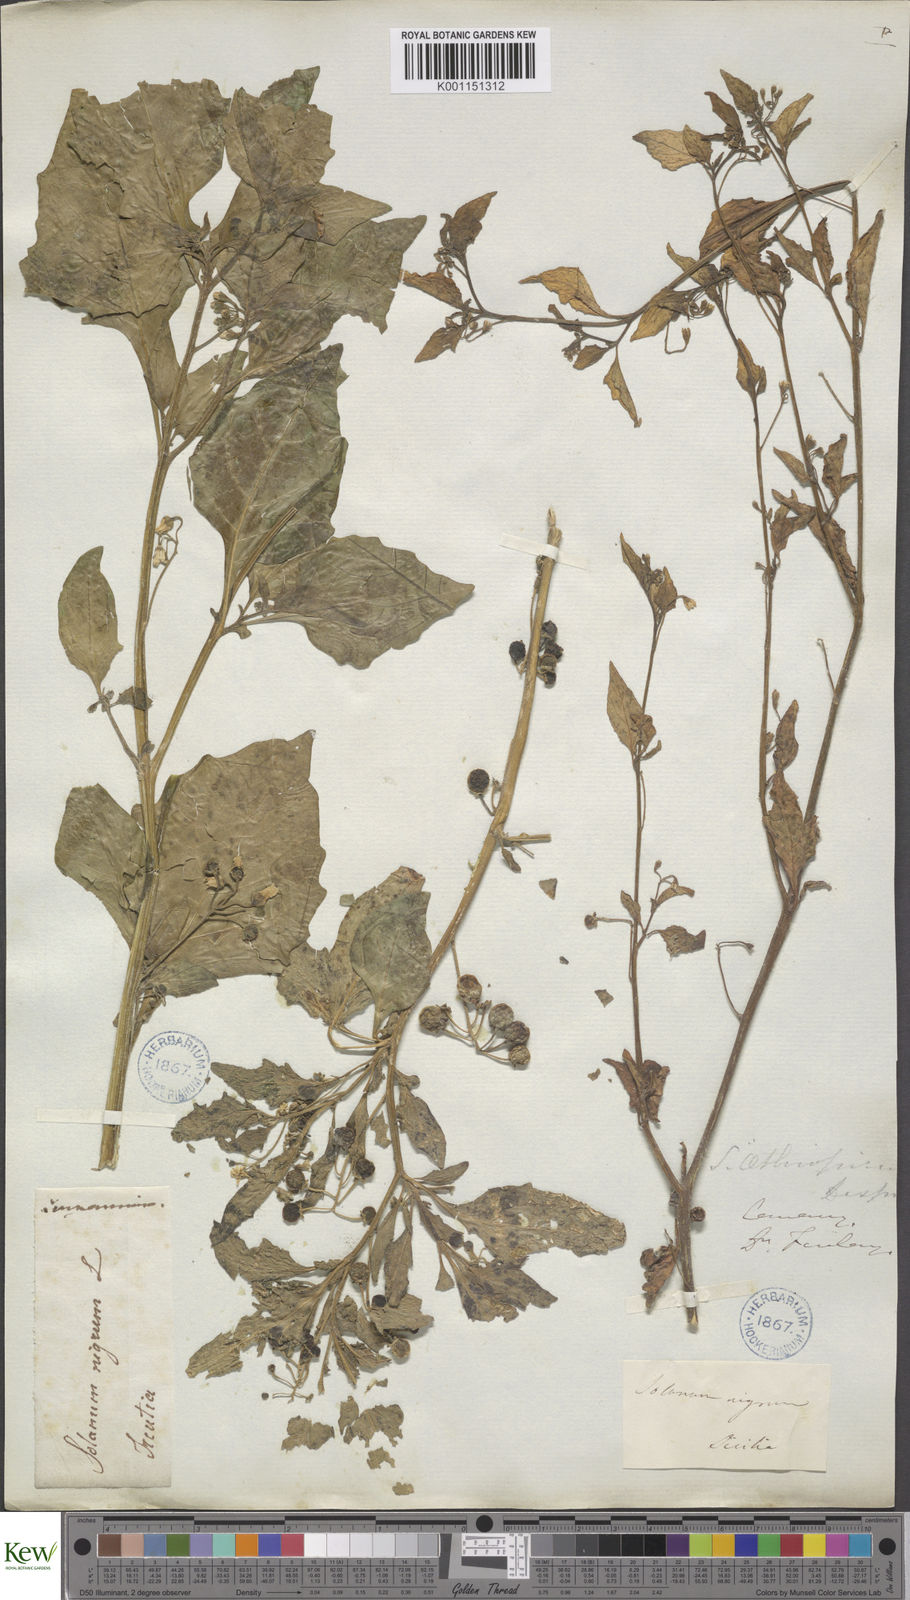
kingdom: Plantae
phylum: Tracheophyta
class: Magnoliopsida
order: Solanales
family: Solanaceae
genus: Solanum
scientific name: Solanum nigrum
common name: Black nightshade
